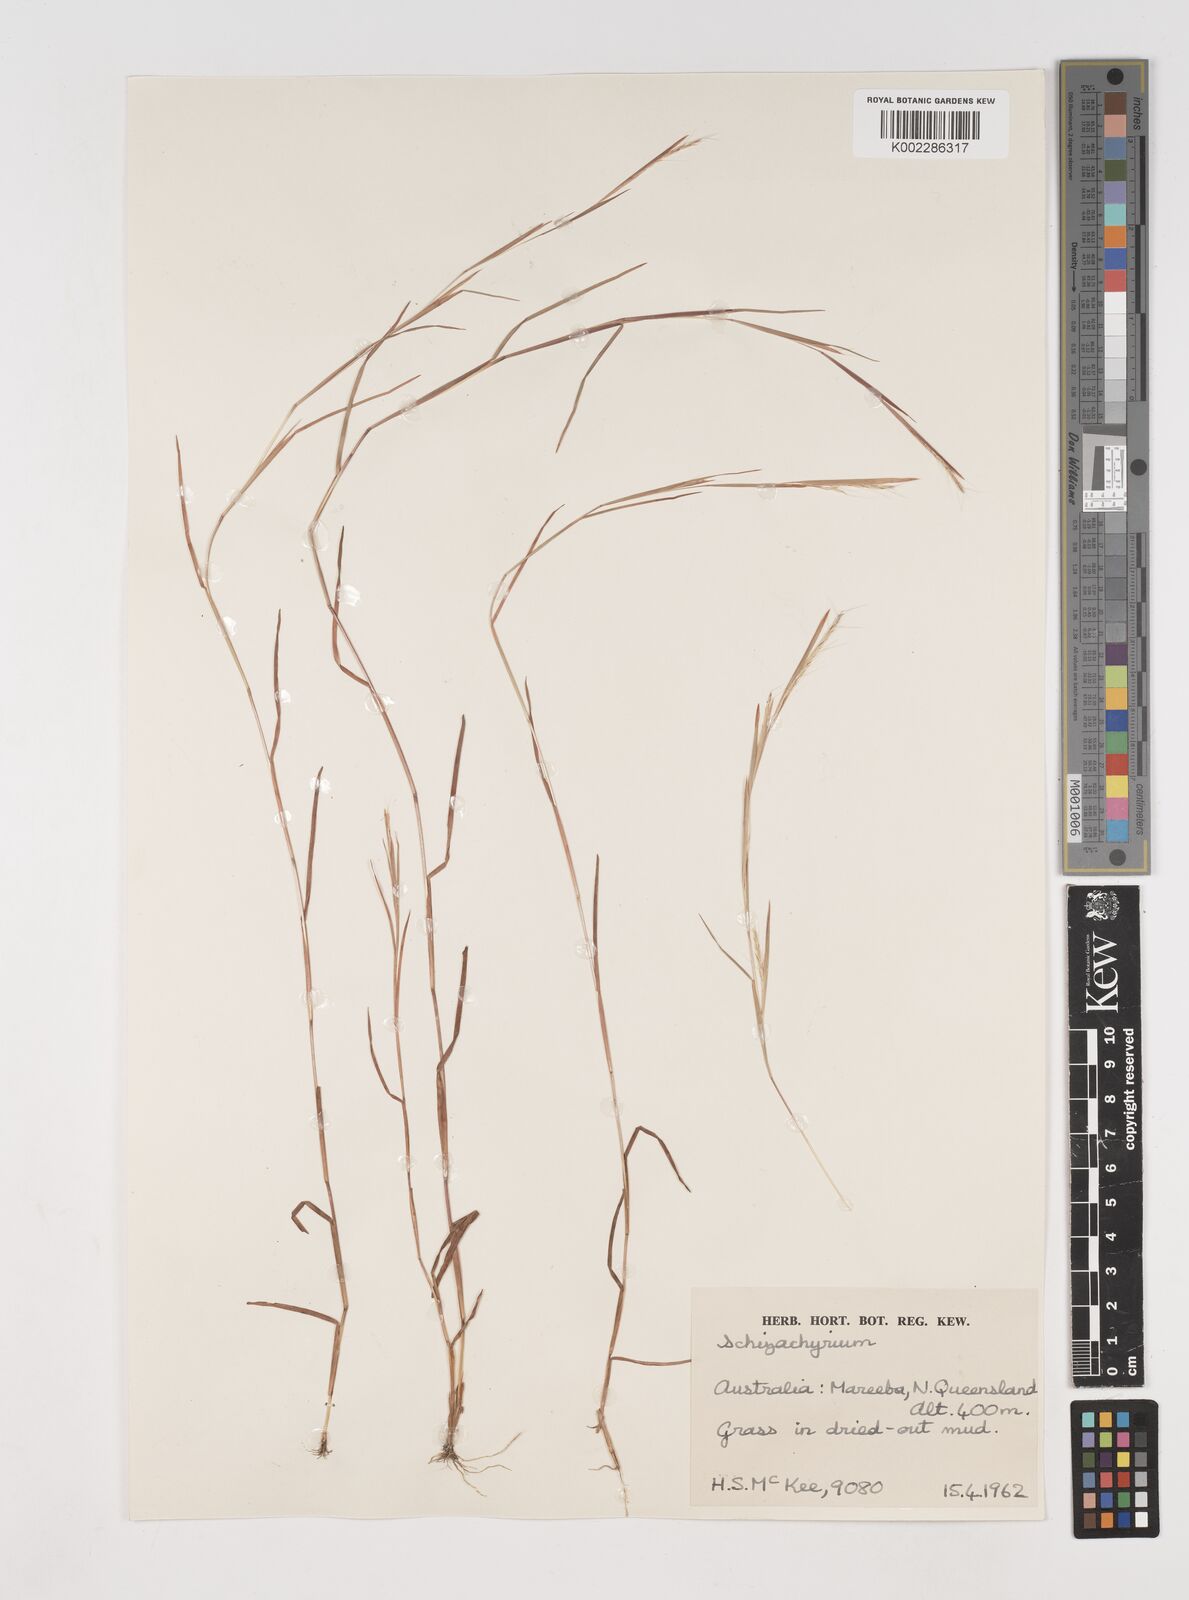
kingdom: Plantae
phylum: Tracheophyta
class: Liliopsida
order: Poales
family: Poaceae
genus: Schizachyrium
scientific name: Schizachyrium
